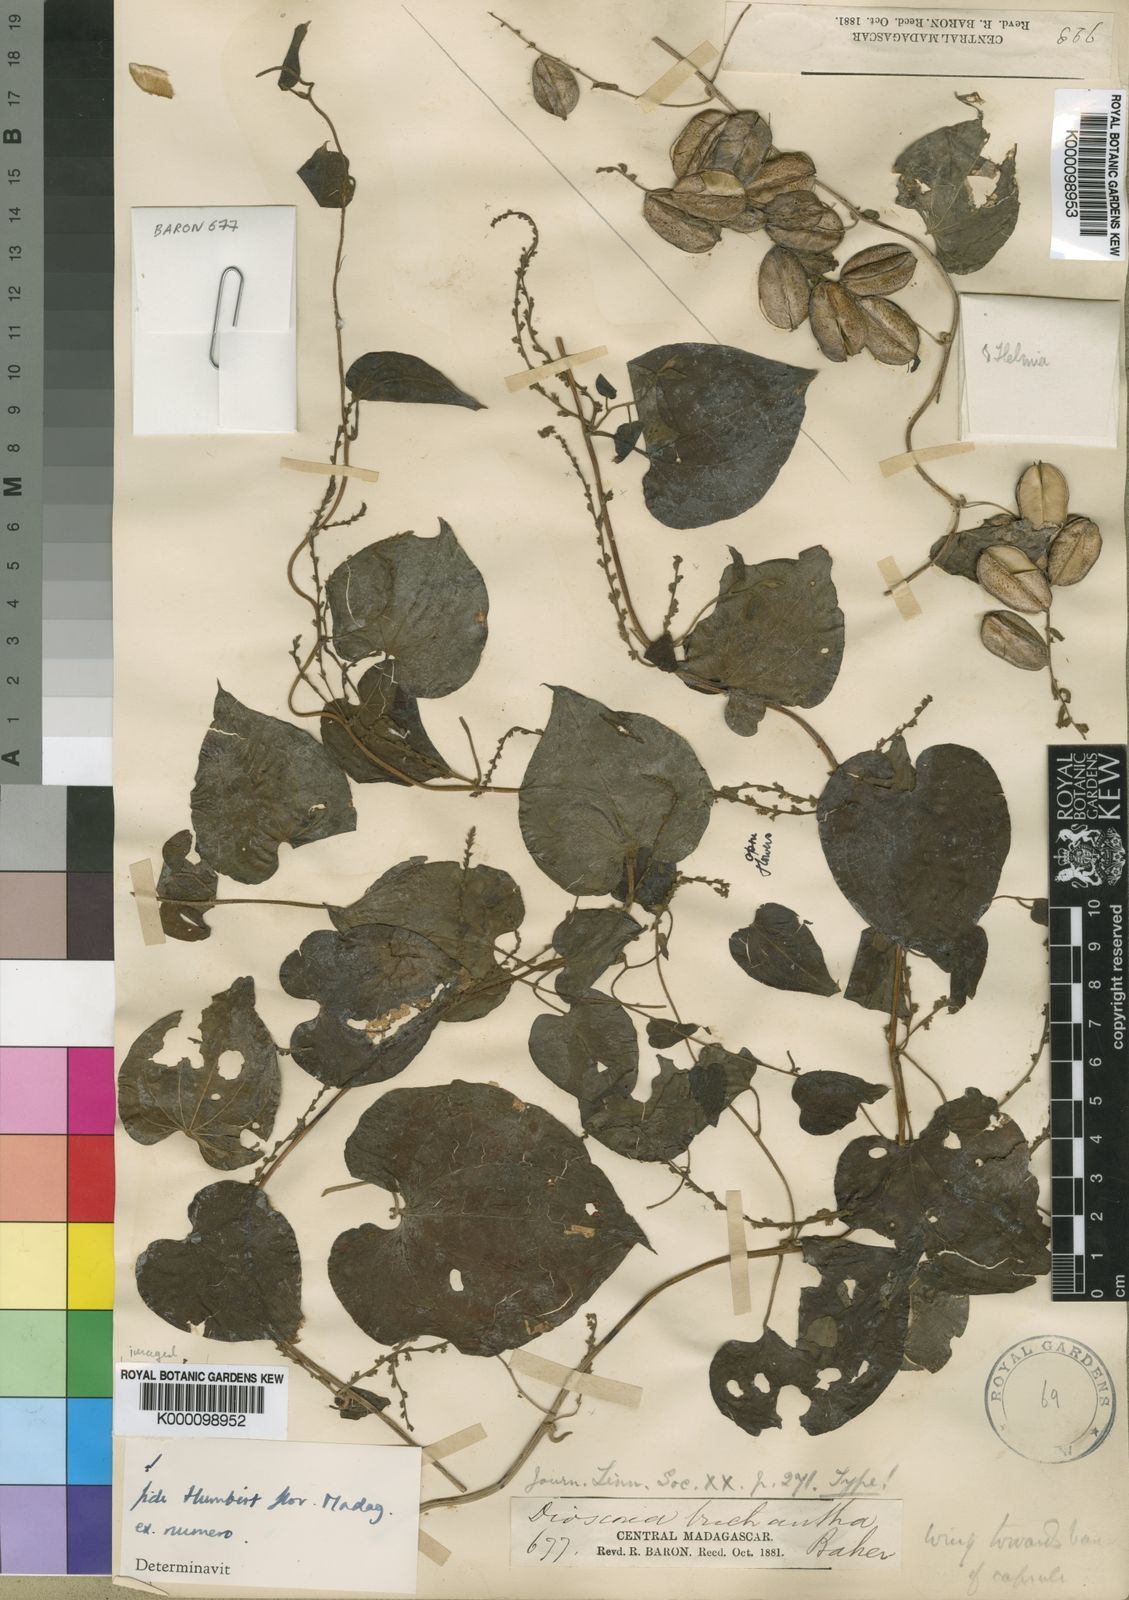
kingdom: Plantae
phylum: Tracheophyta
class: Liliopsida
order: Dioscoreales
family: Dioscoreaceae
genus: Dioscorea
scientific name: Dioscorea trichantha
